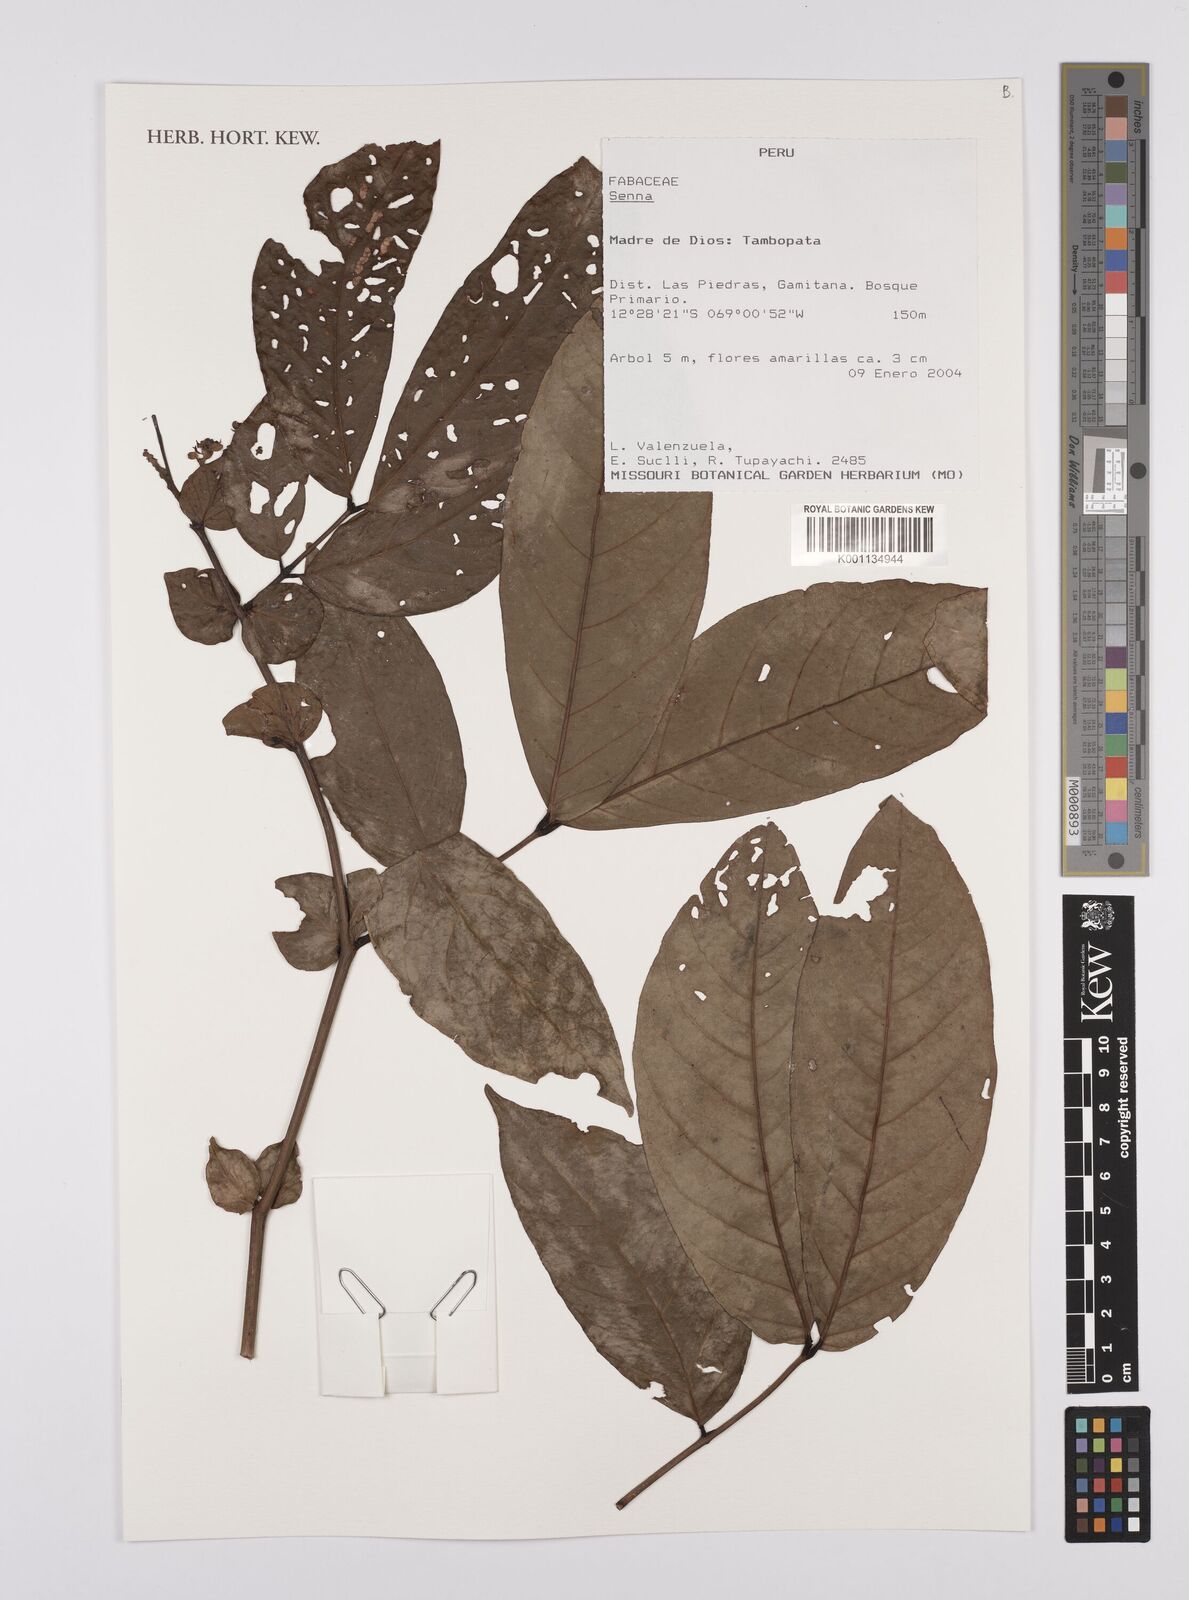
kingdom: Plantae
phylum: Tracheophyta
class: Magnoliopsida
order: Fabales
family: Fabaceae
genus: Senna
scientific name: Senna
